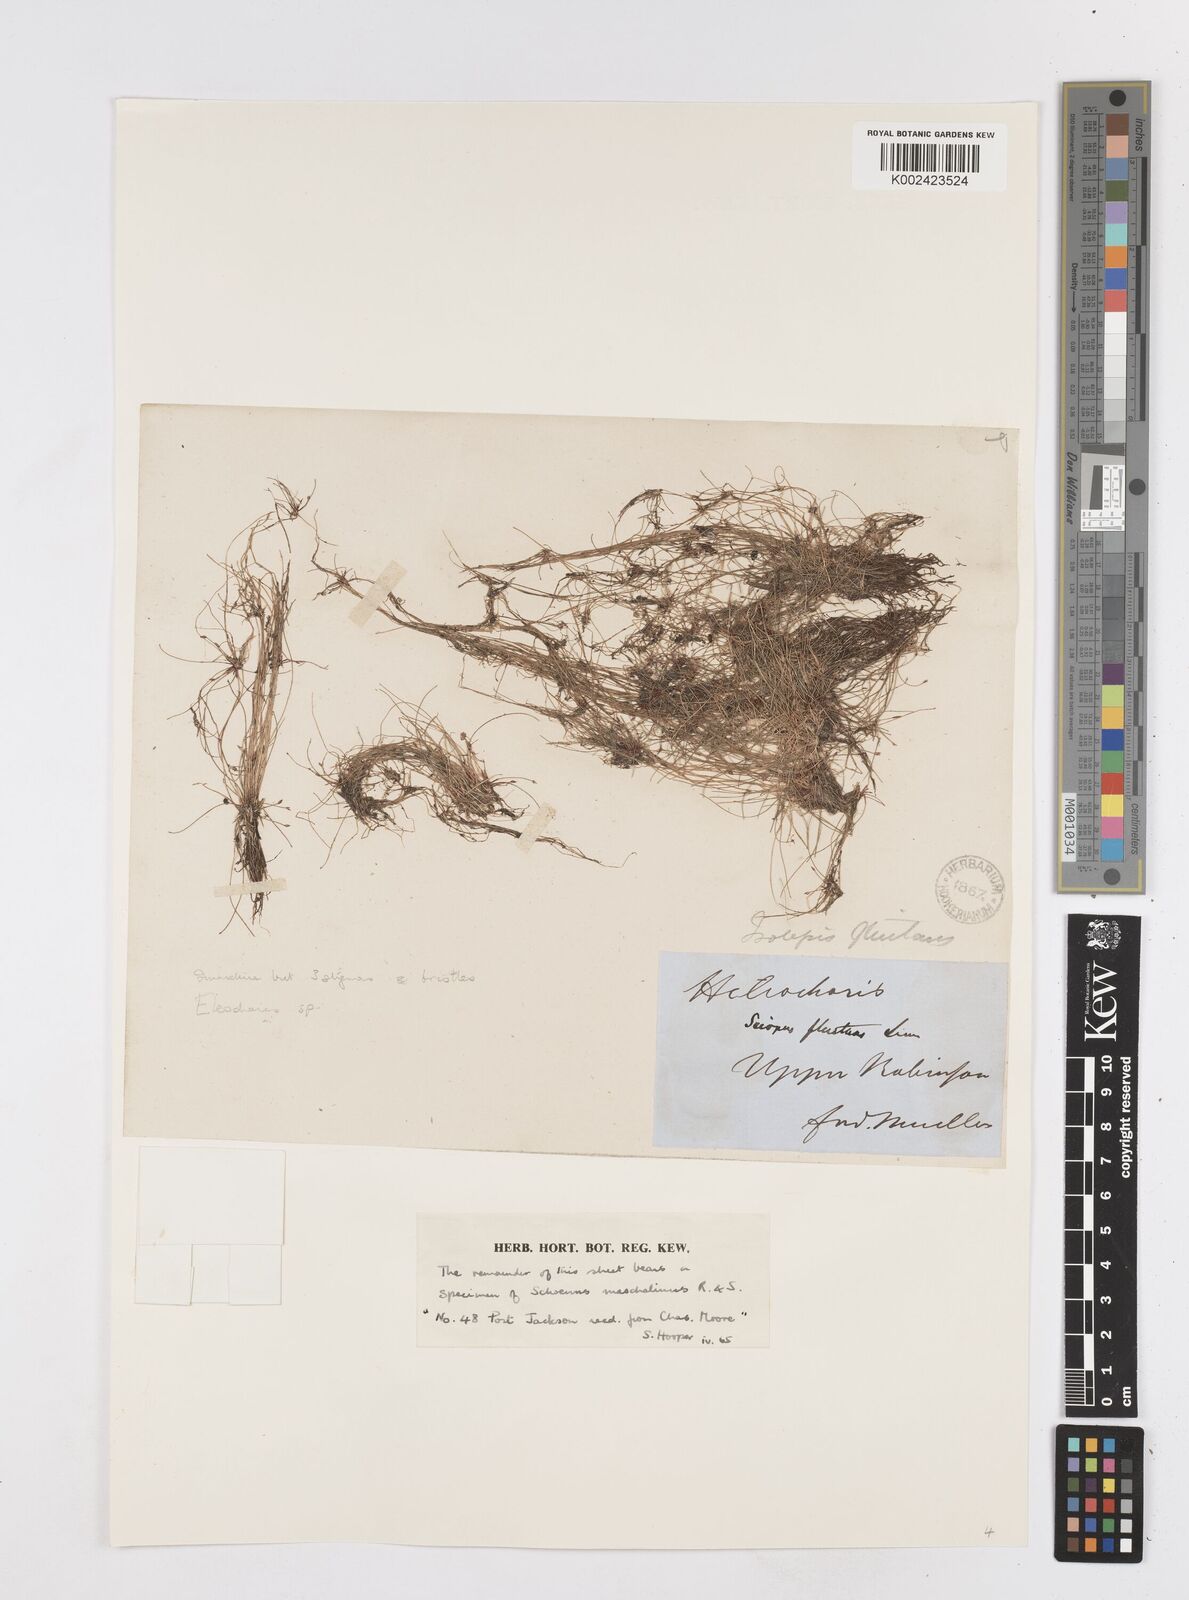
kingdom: Plantae
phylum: Tracheophyta
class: Liliopsida
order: Poales
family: Cyperaceae
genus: Eleocharis
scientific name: Eleocharis
